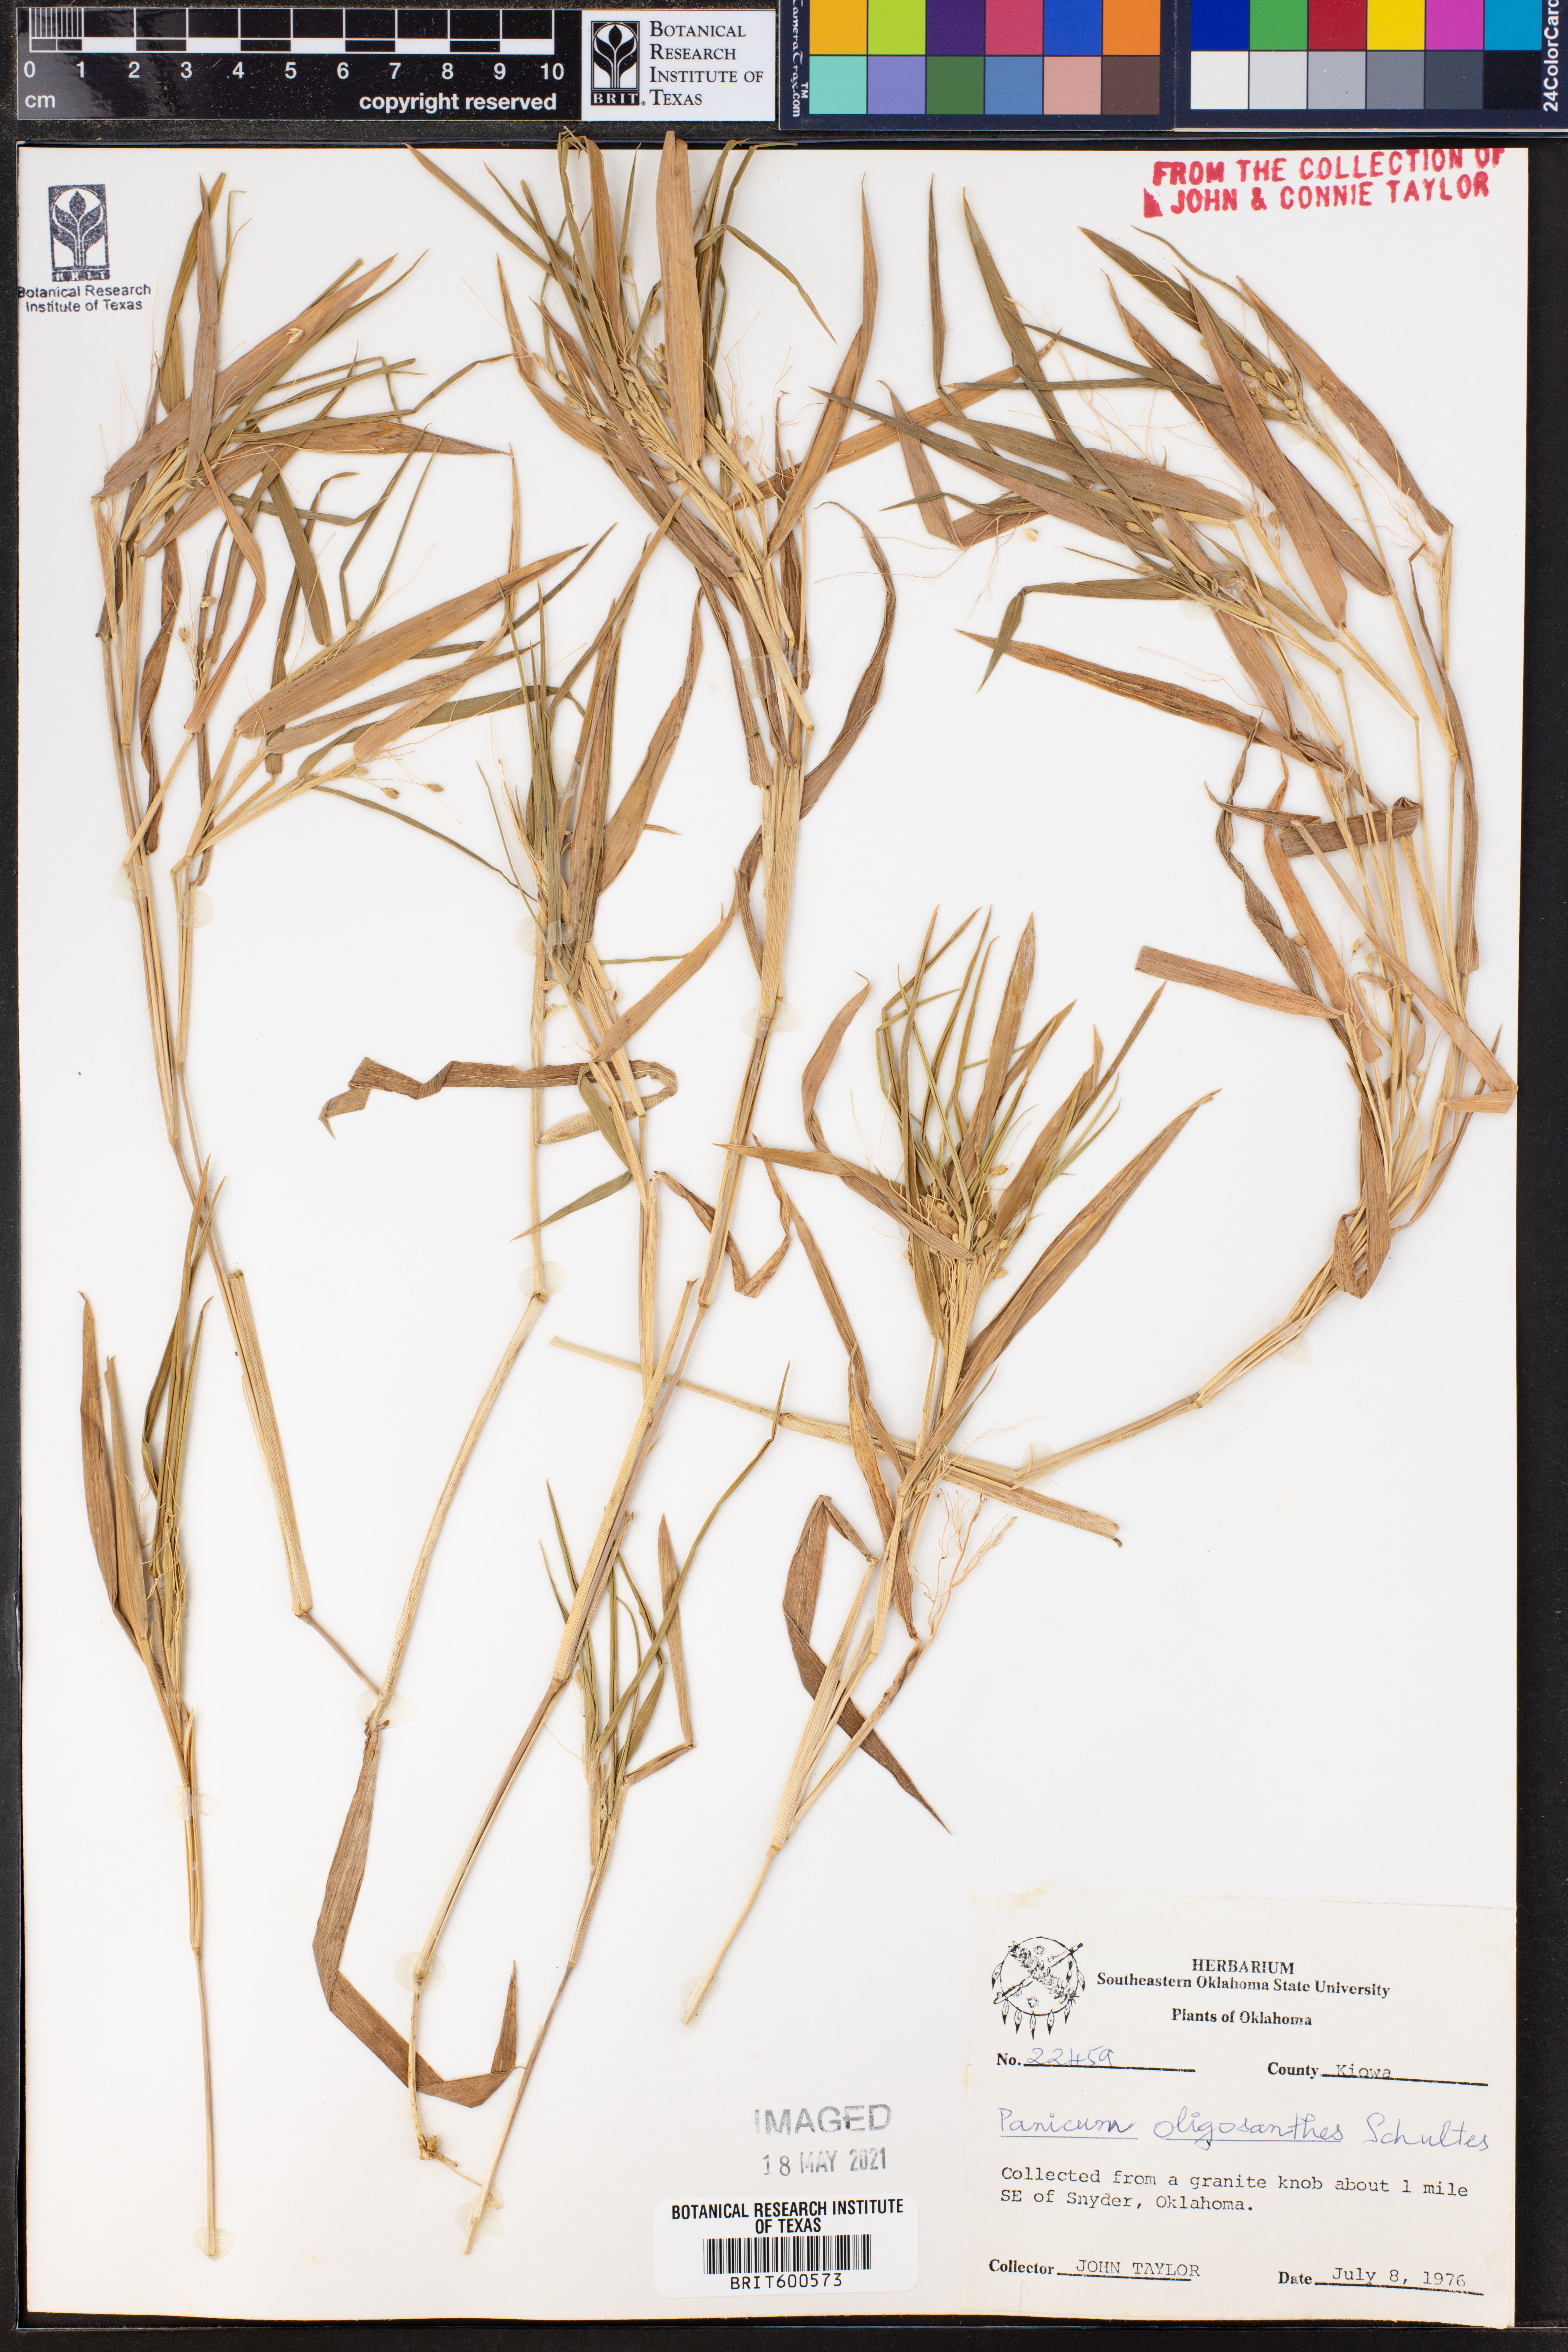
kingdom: Plantae
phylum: Tracheophyta
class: Liliopsida
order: Poales
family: Poaceae
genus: Dichanthelium
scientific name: Dichanthelium oligosanthes
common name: Few-anther obscuregrass
